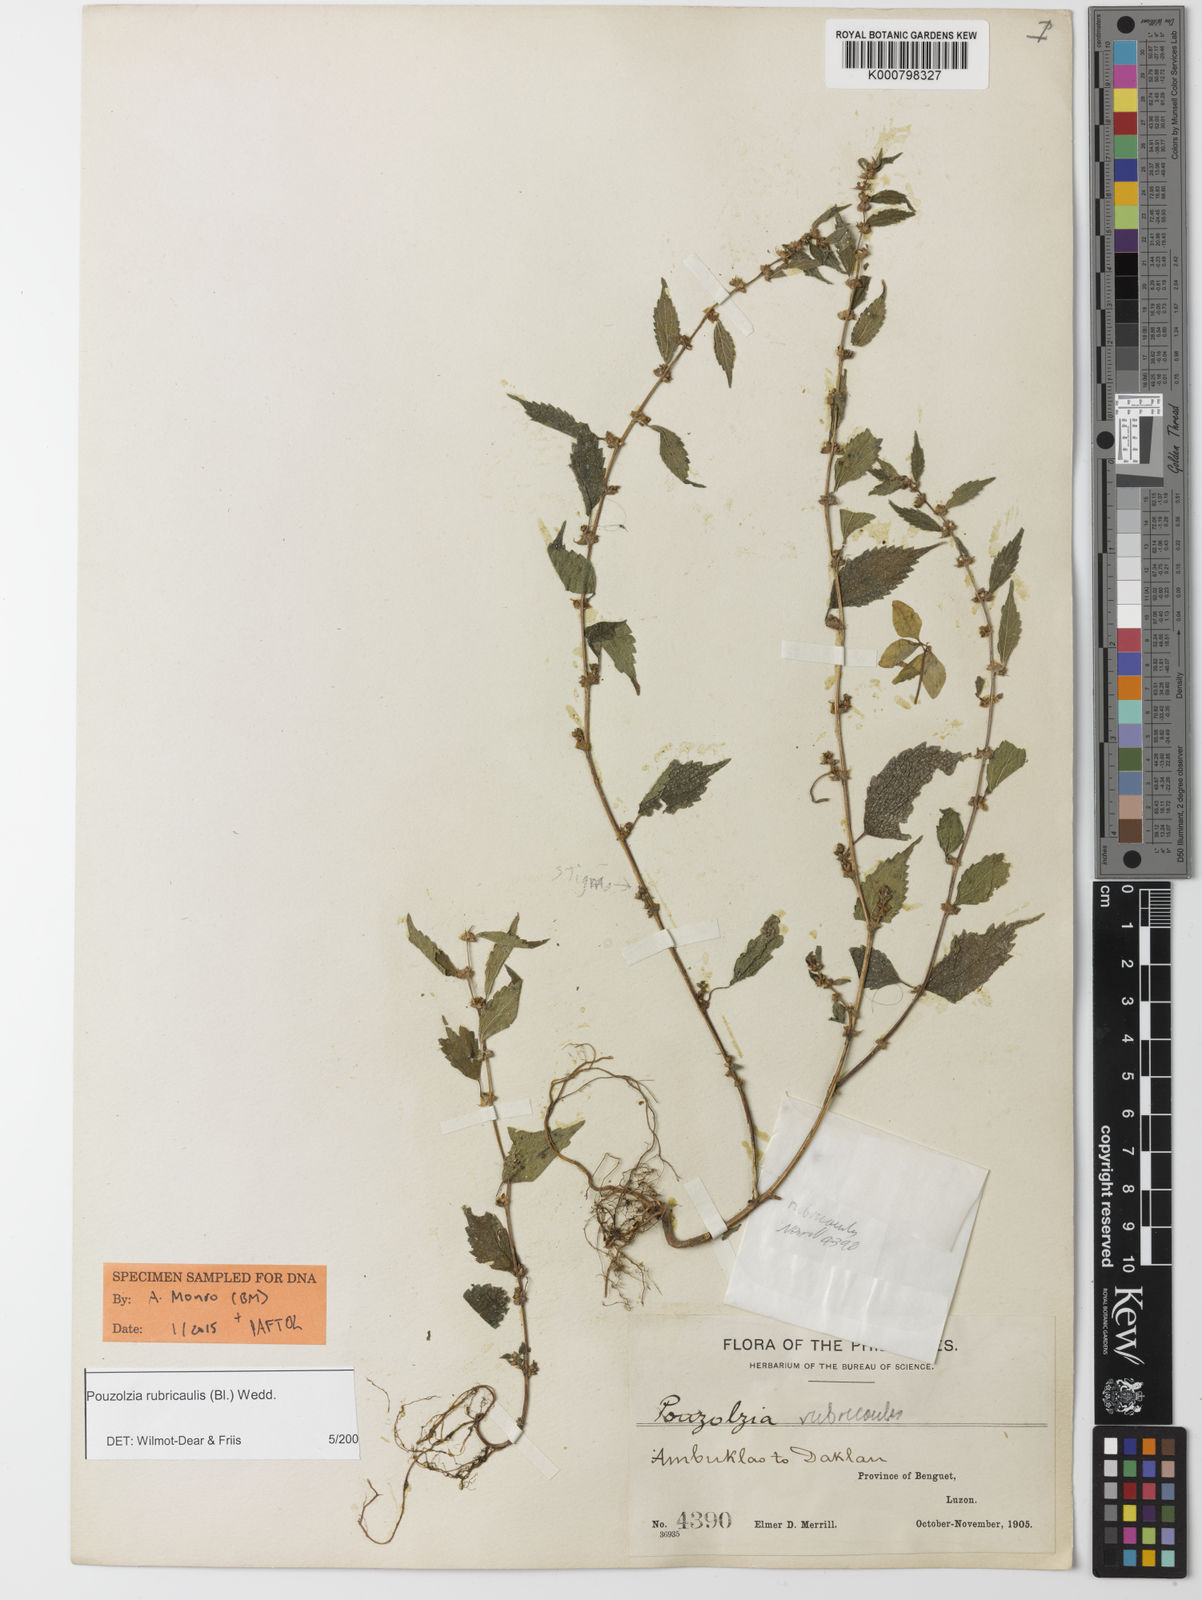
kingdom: Plantae
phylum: Tracheophyta
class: Magnoliopsida
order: Rosales
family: Urticaceae
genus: Pouzolzia
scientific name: Pouzolzia rubricaulis
